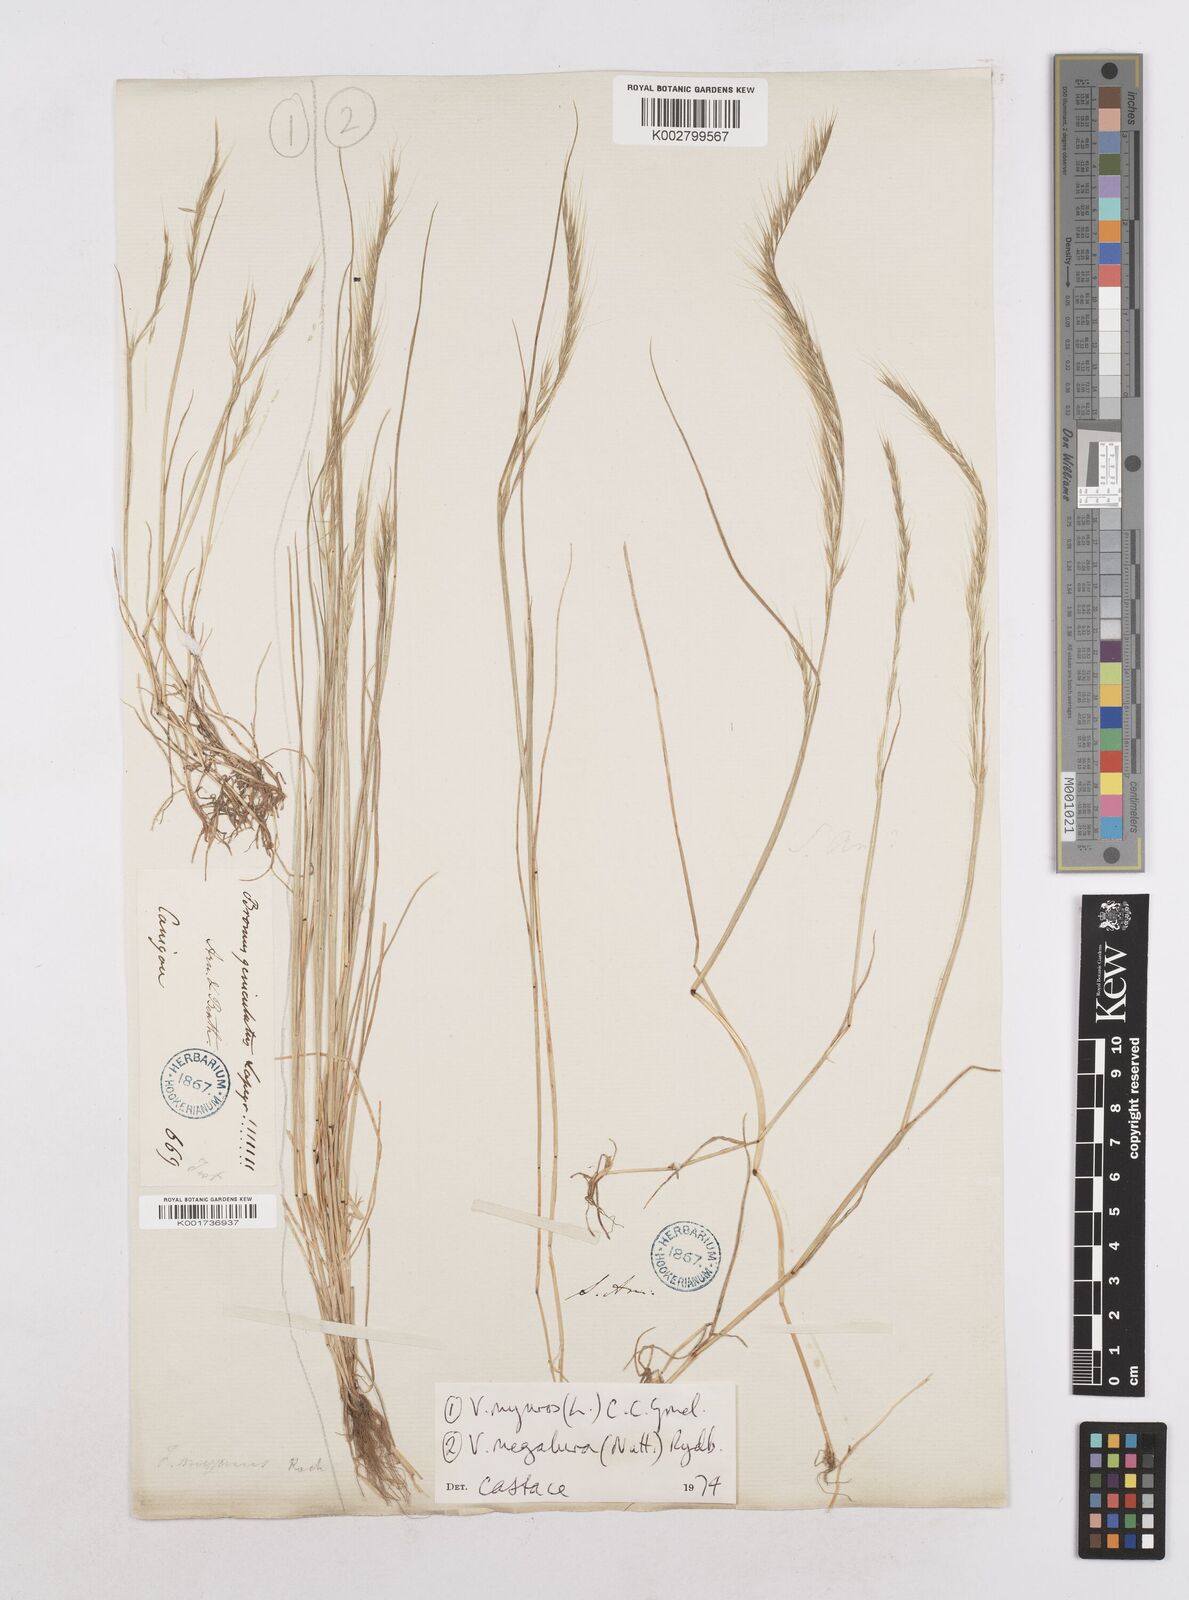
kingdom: Plantae
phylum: Tracheophyta
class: Liliopsida
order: Poales
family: Poaceae
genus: Festuca
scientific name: Festuca myuros
